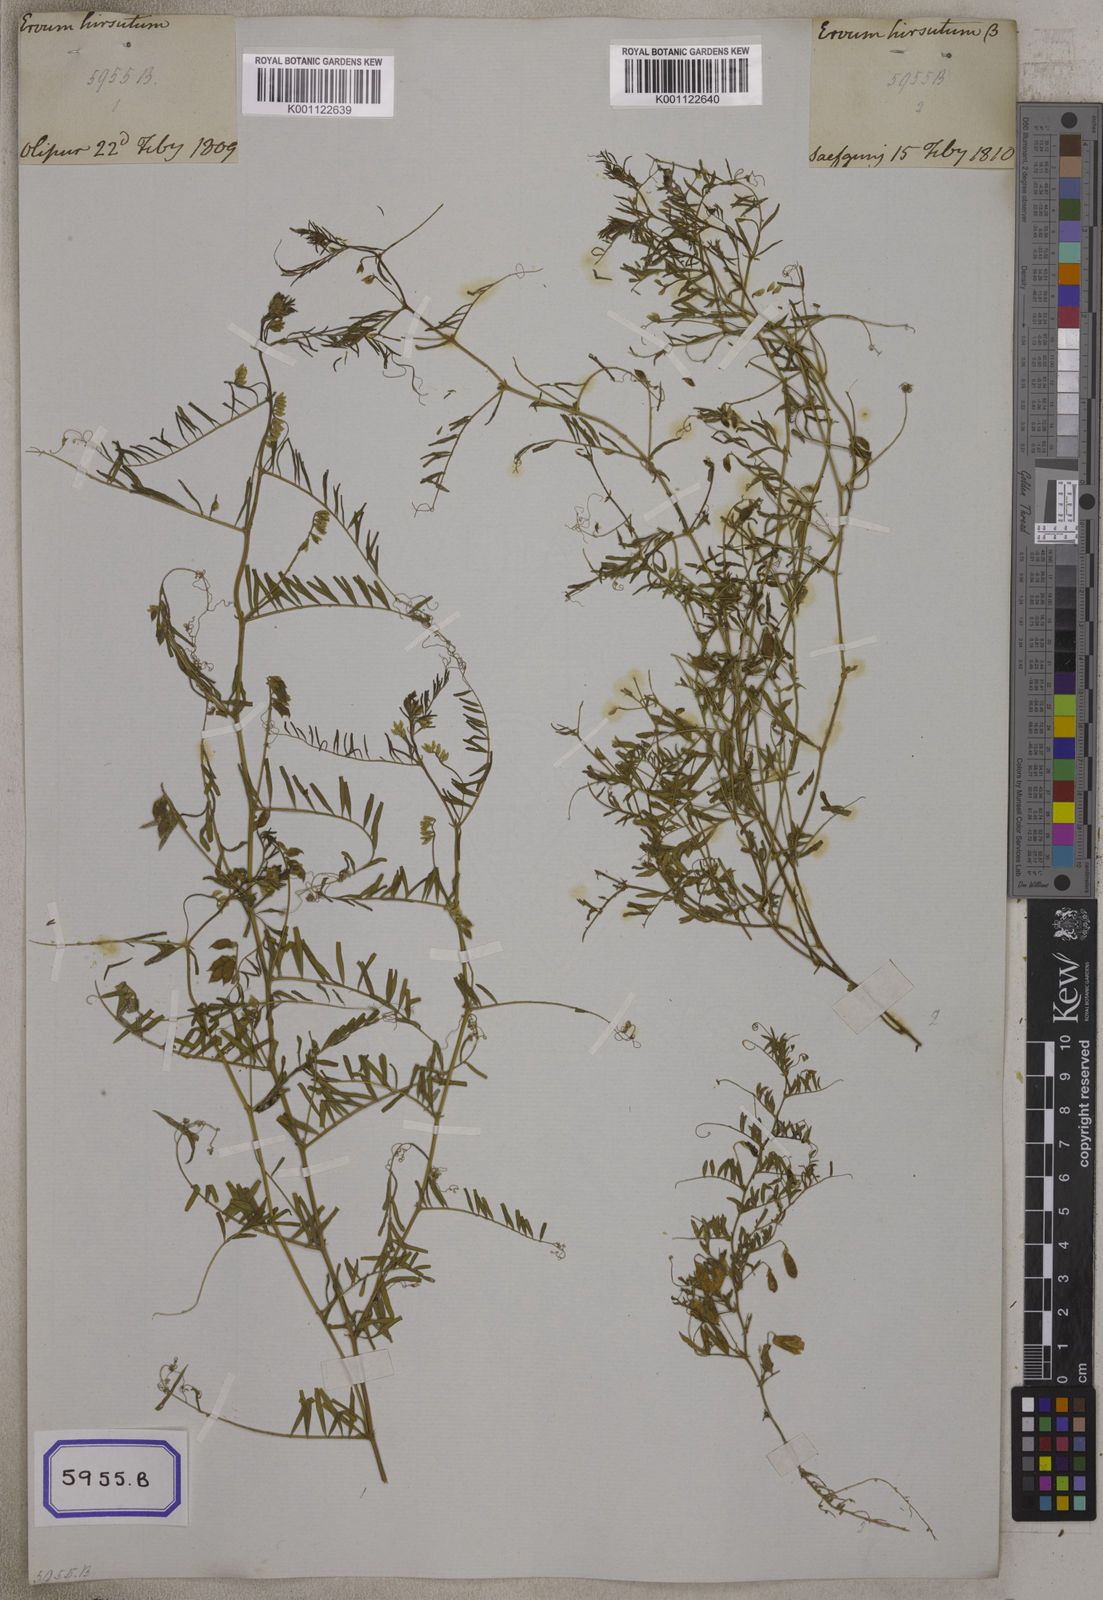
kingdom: Plantae
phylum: Tracheophyta
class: Magnoliopsida
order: Fabales
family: Fabaceae
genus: Vicia
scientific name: Vicia hirsuta
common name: Tiny vetch
